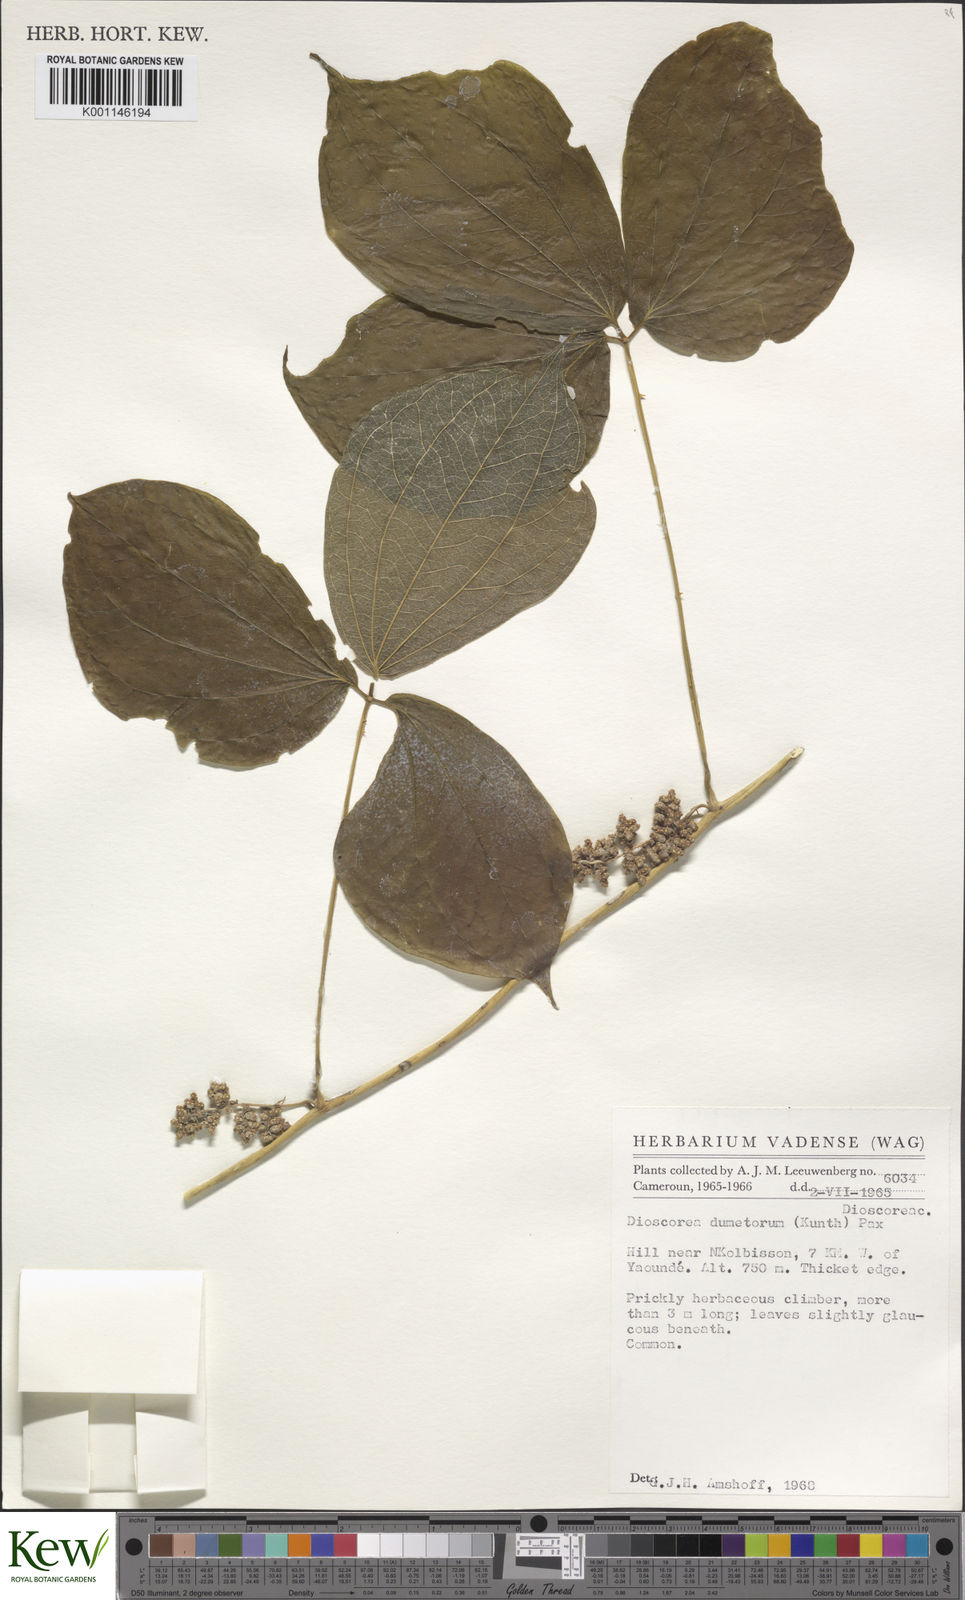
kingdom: Plantae
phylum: Tracheophyta
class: Liliopsida
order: Dioscoreales
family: Dioscoreaceae
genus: Dioscorea
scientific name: Dioscorea dumetorum
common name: African bitter yam
